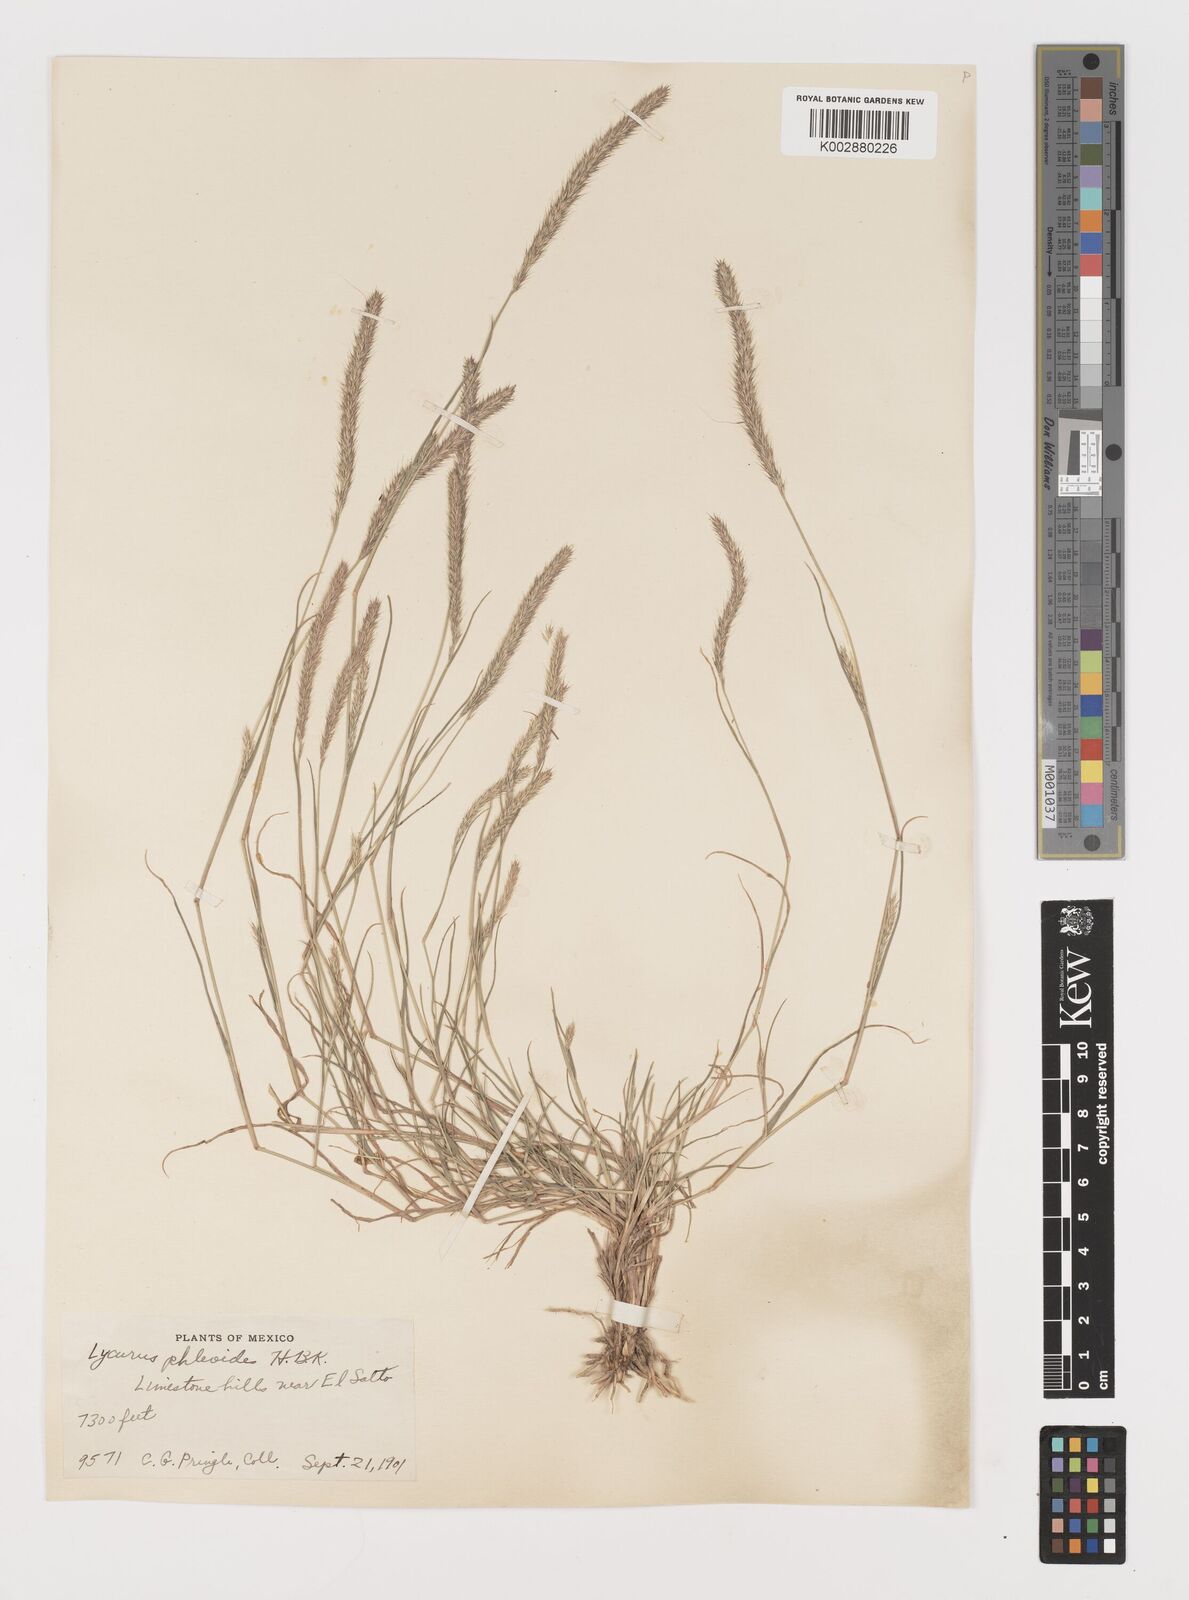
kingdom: Plantae
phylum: Tracheophyta
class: Liliopsida
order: Poales
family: Poaceae
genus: Muhlenbergia
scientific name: Muhlenbergia phleoides
